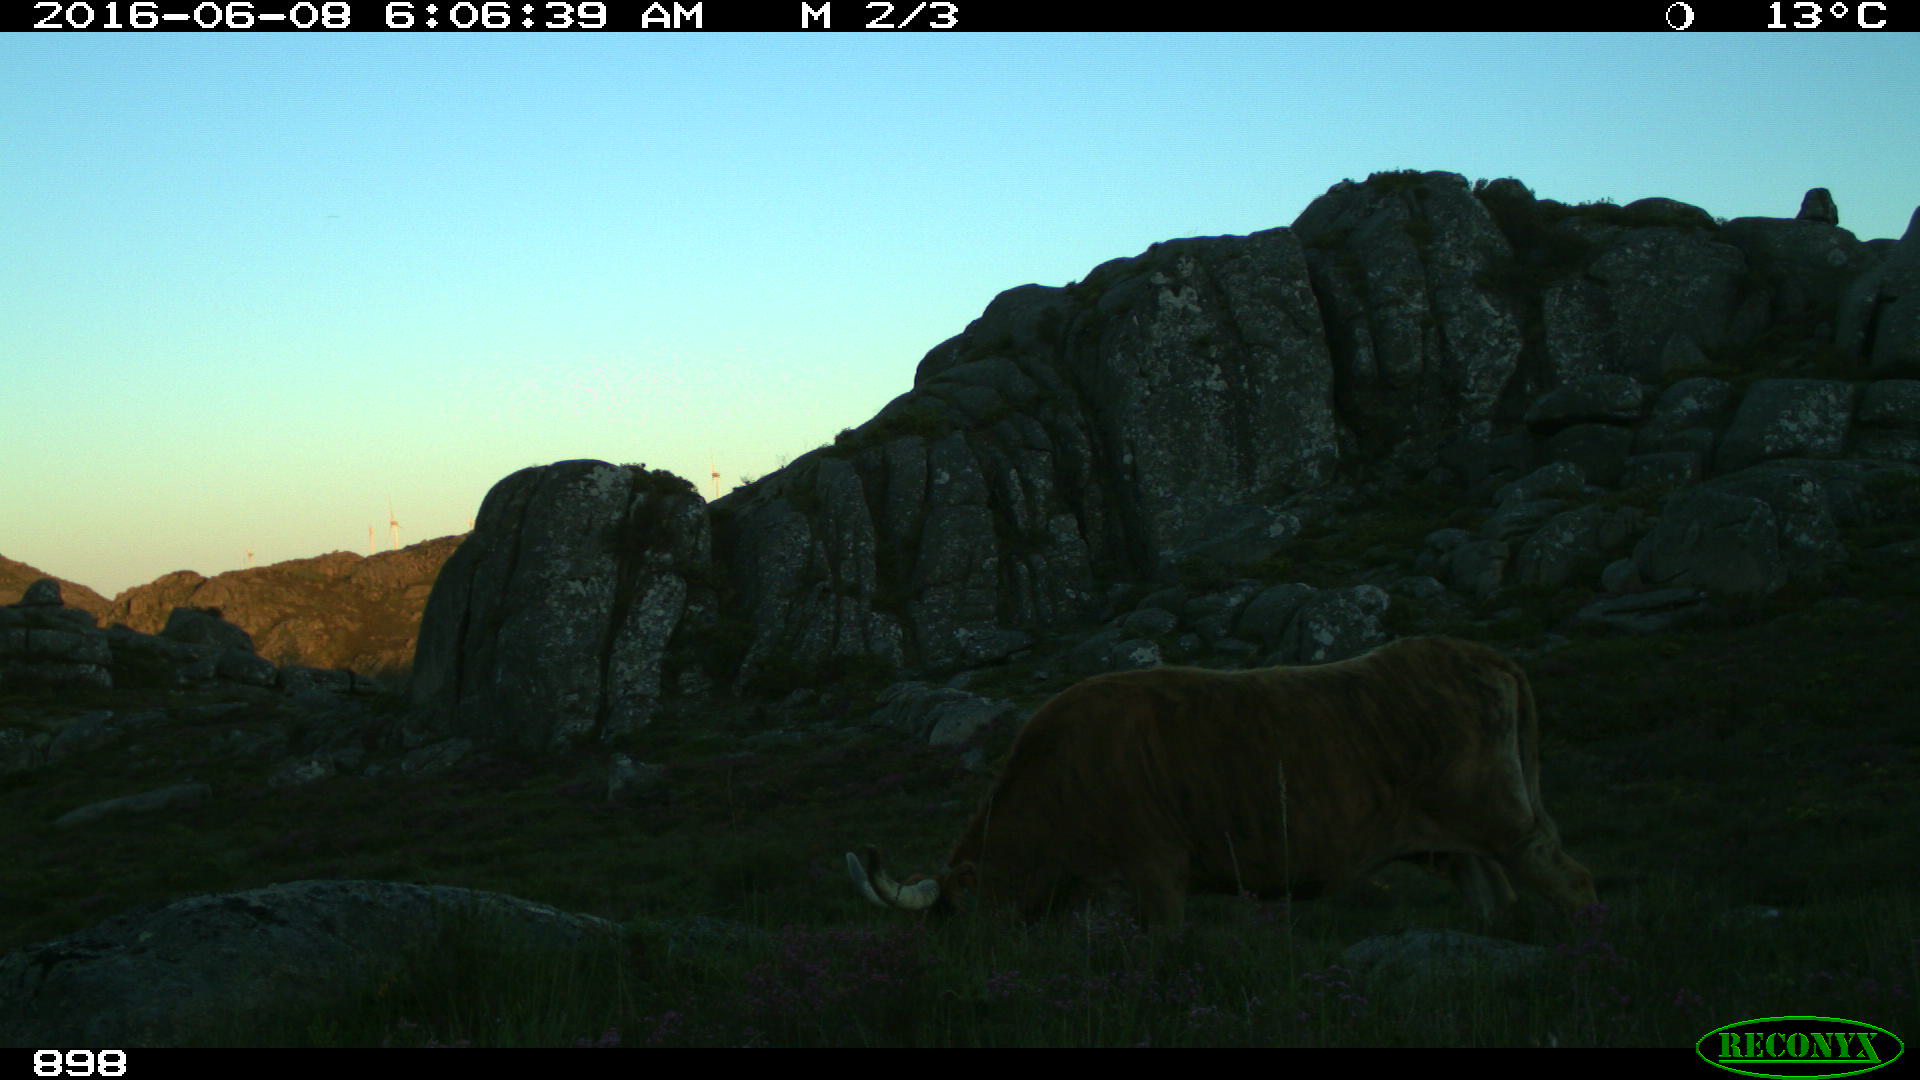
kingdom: Animalia
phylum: Chordata
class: Mammalia
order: Artiodactyla
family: Bovidae
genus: Bos
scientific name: Bos taurus
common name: Domesticated cattle
